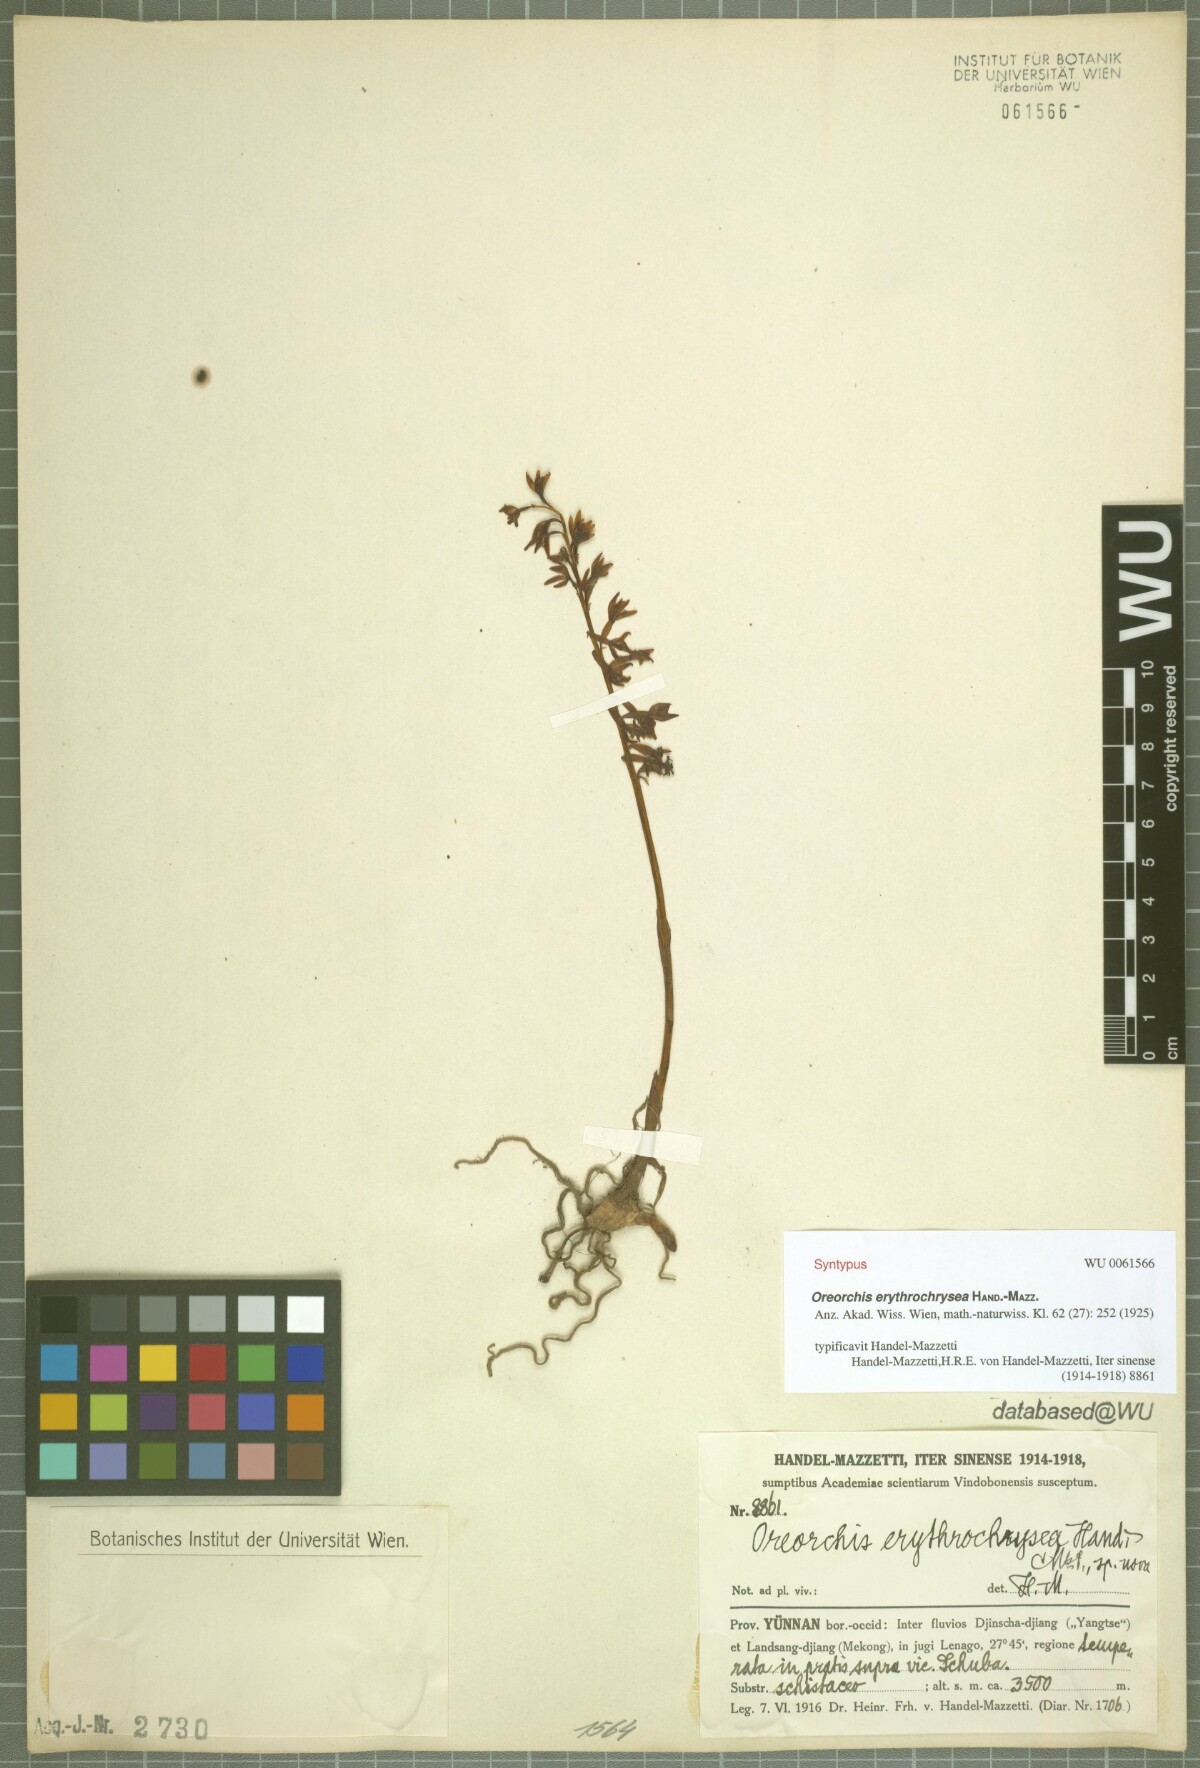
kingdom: Plantae
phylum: Tracheophyta
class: Liliopsida
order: Asparagales
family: Orchidaceae
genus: Oreorchis
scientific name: Oreorchis erythrochrysea
